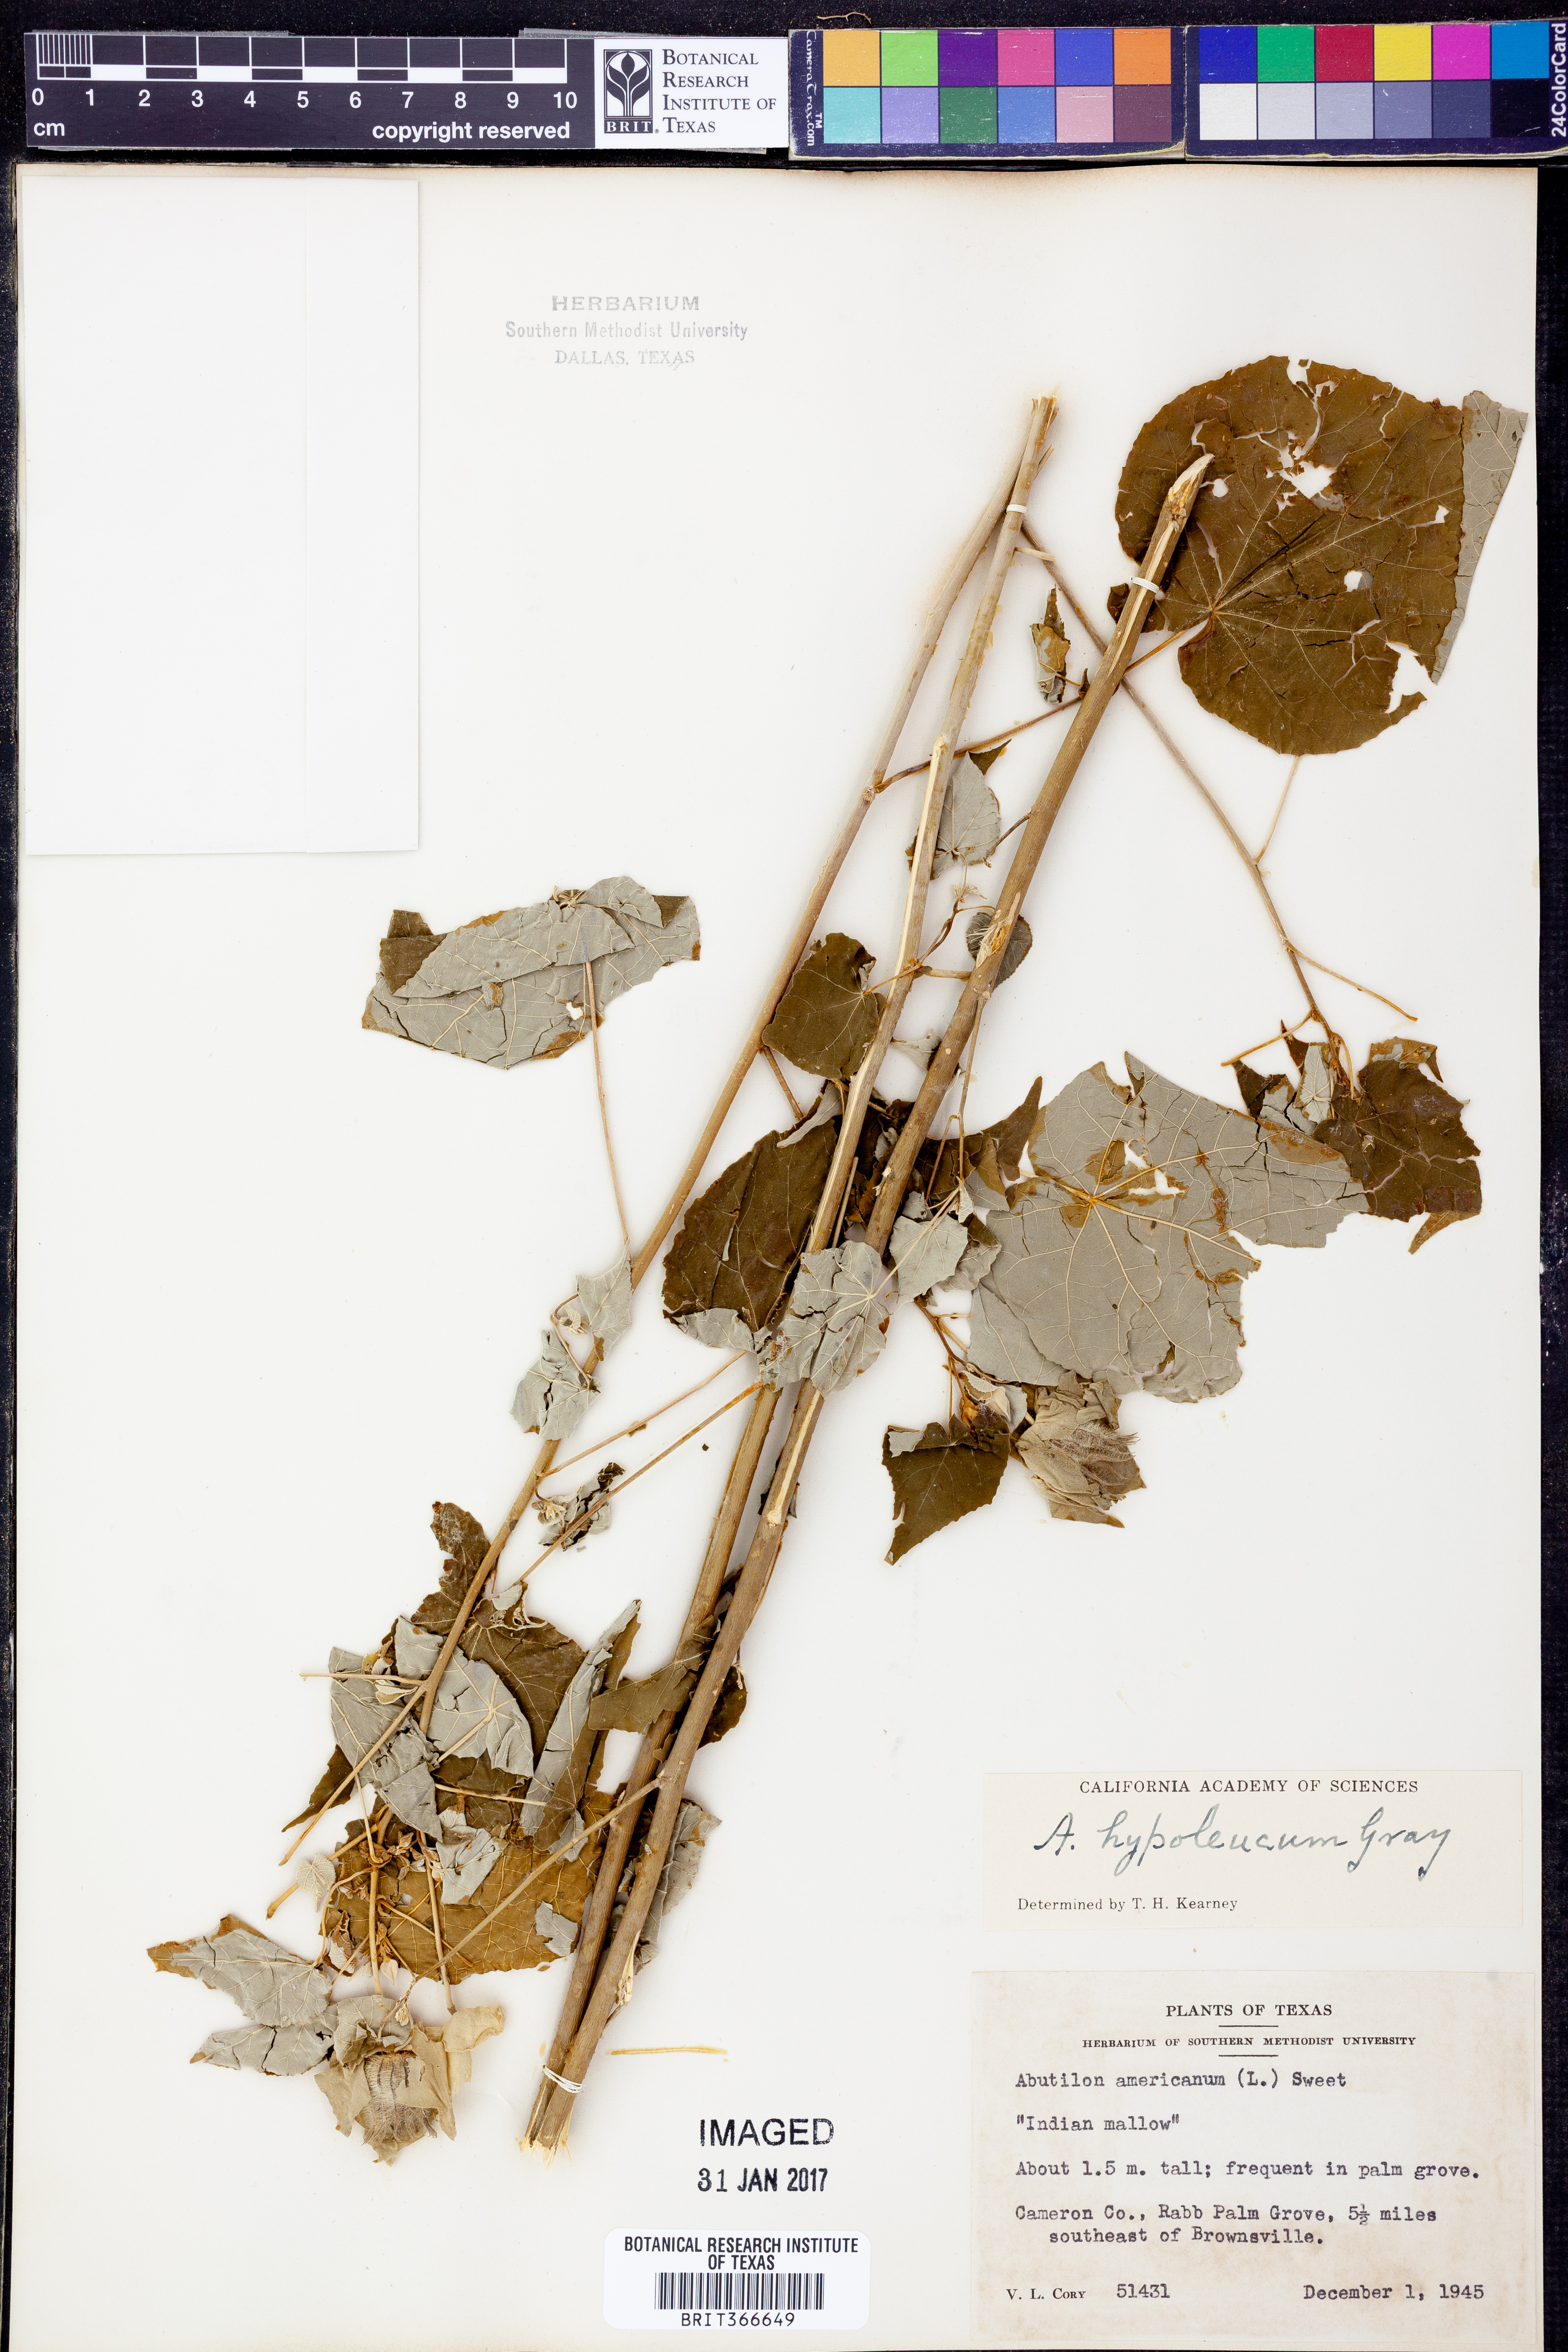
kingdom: Plantae
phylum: Tracheophyta
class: Magnoliopsida
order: Malvales
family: Malvaceae
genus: Abutilon
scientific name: Abutilon hypoleucum
